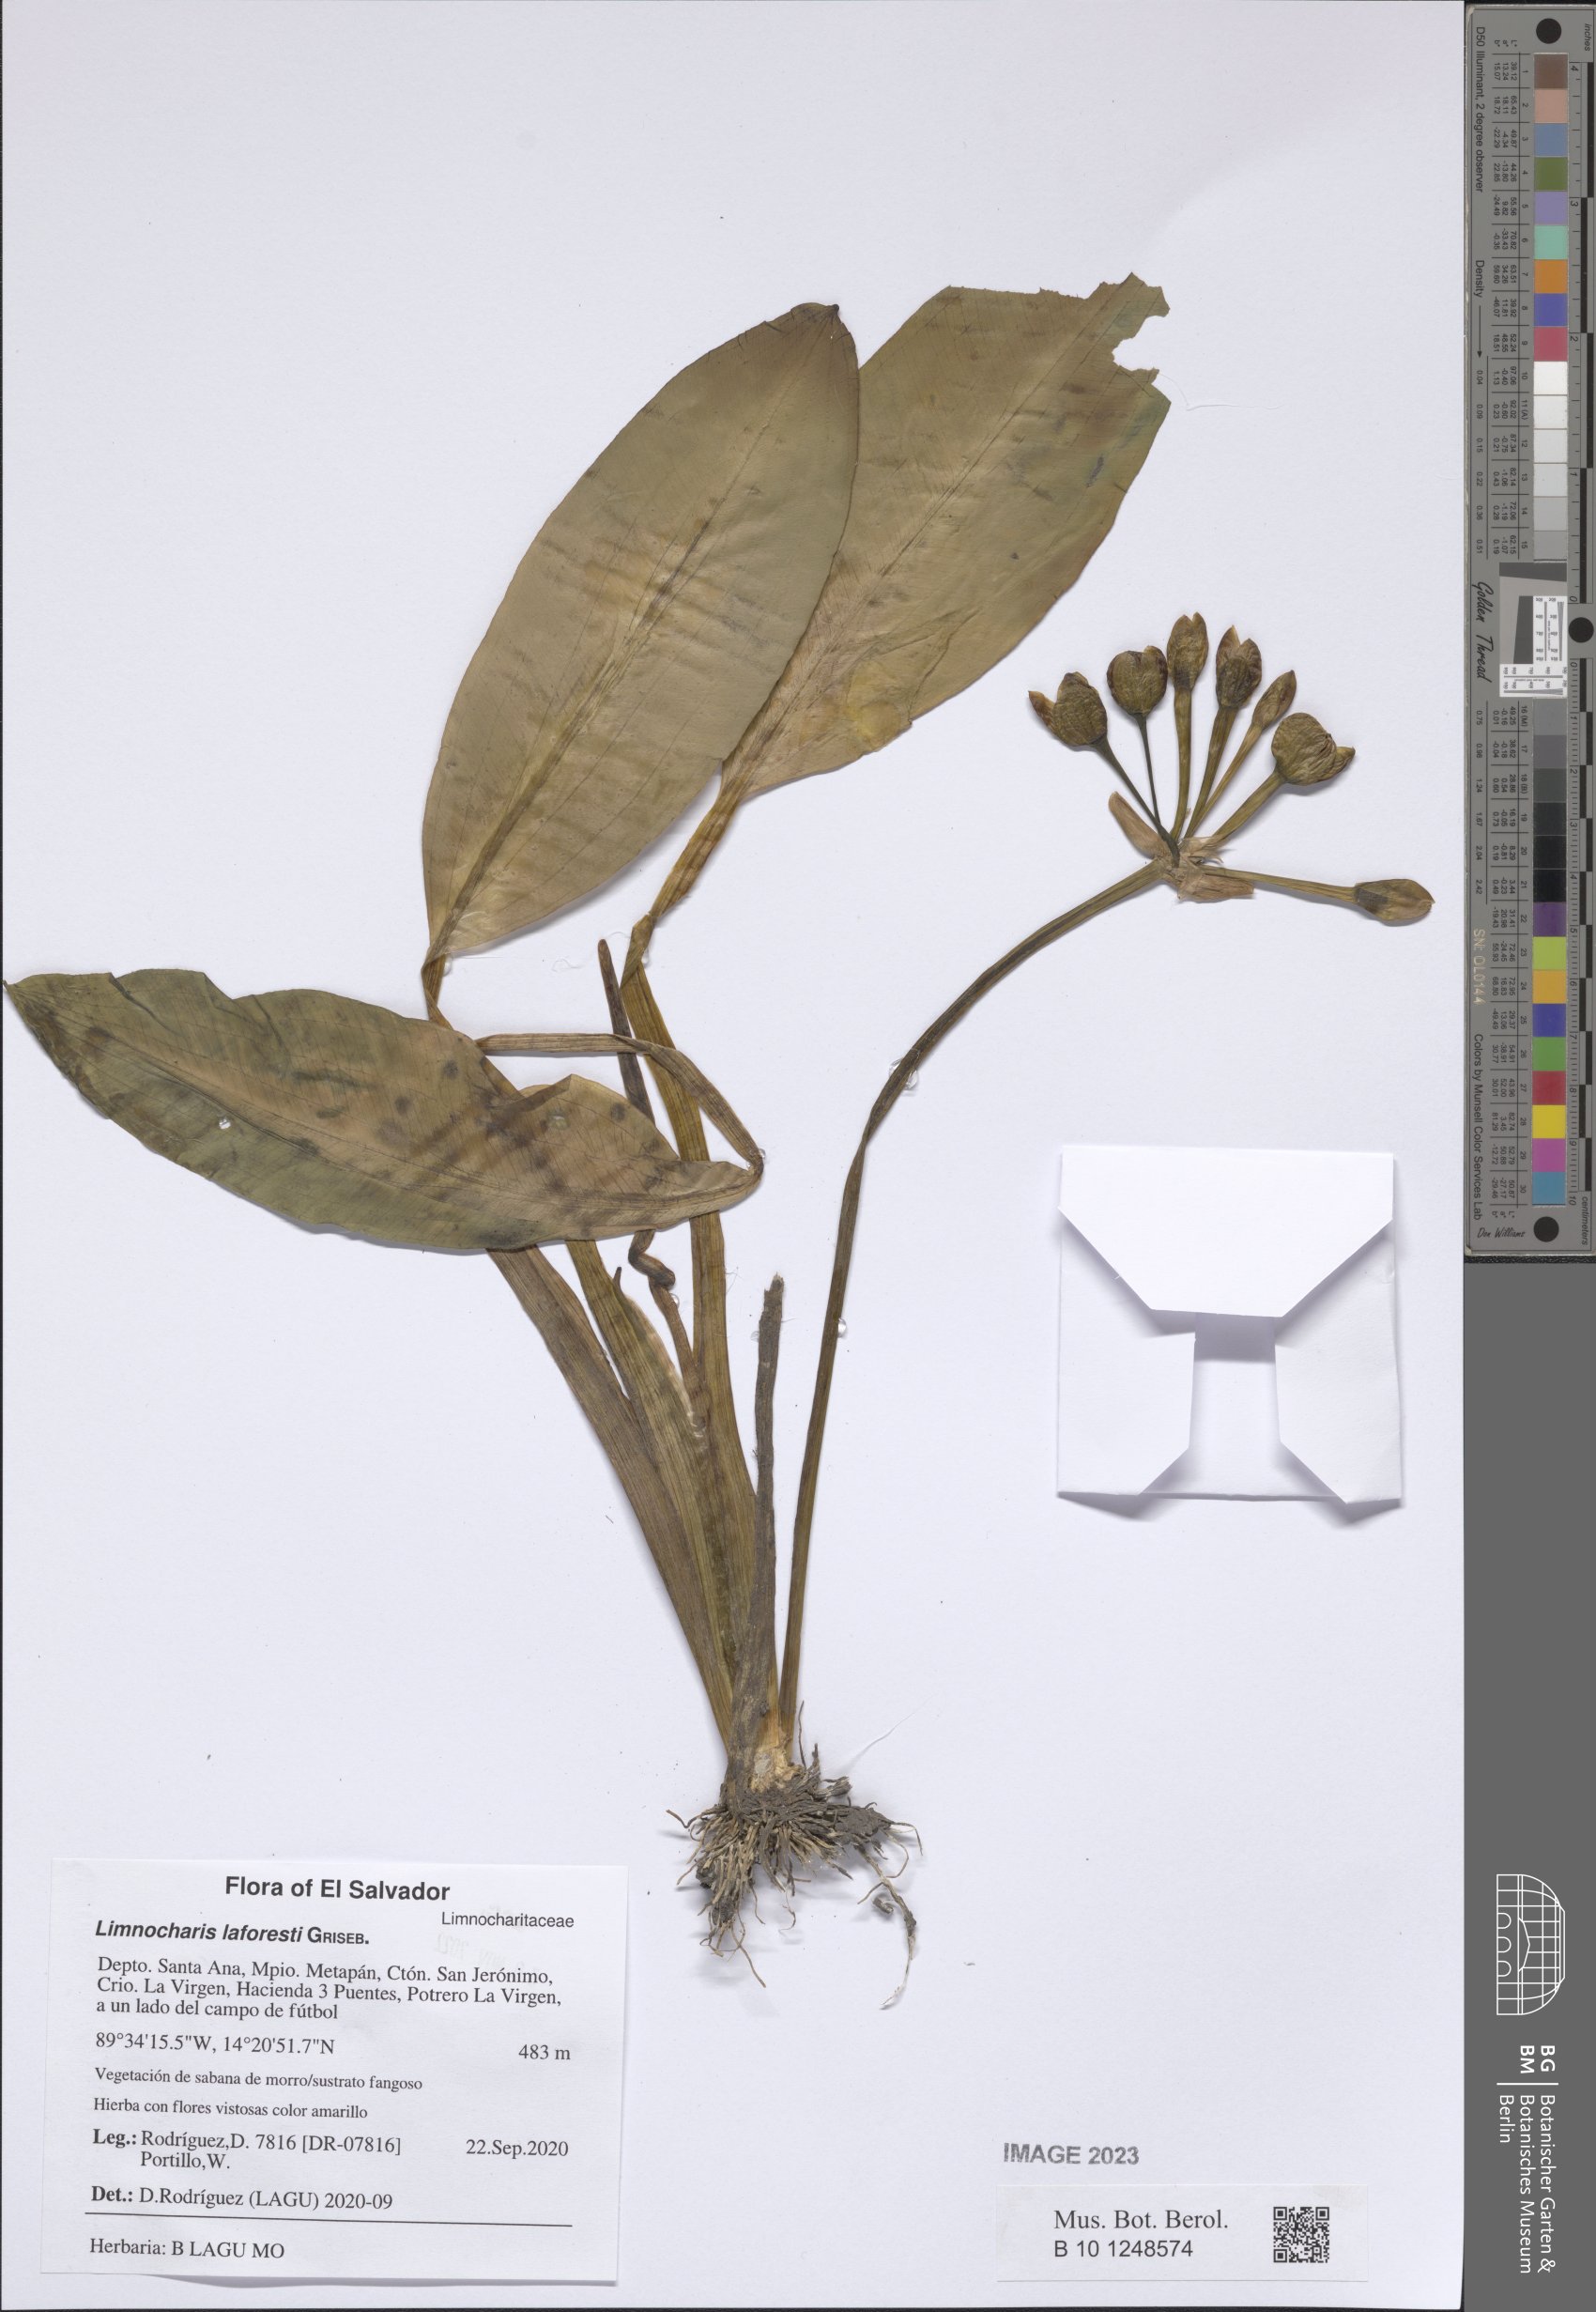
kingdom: Plantae
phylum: Tracheophyta
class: Liliopsida
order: Alismatales
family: Alismataceae
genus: Limnocharis
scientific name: Limnocharis laforestii
